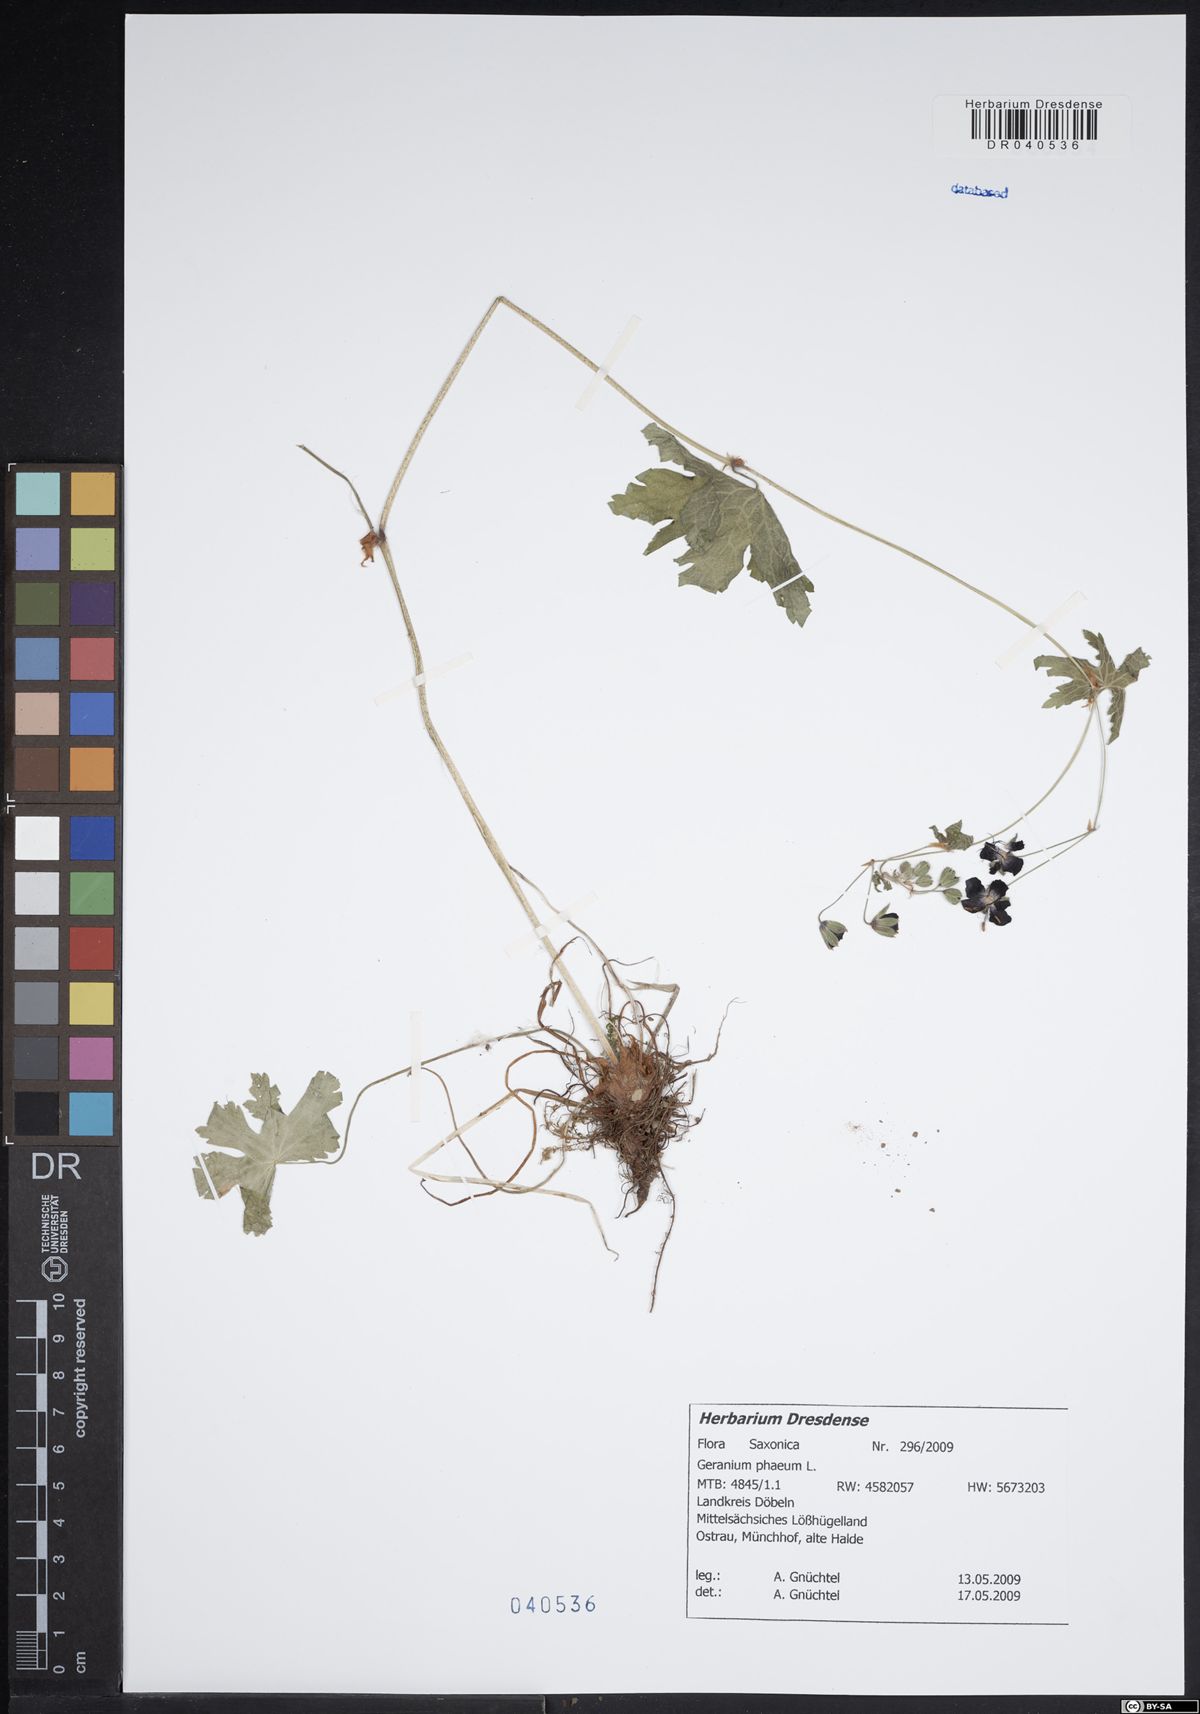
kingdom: Plantae
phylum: Tracheophyta
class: Magnoliopsida
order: Geraniales
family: Geraniaceae
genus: Geranium
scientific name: Geranium phaeum
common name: Dusky crane's-bill
